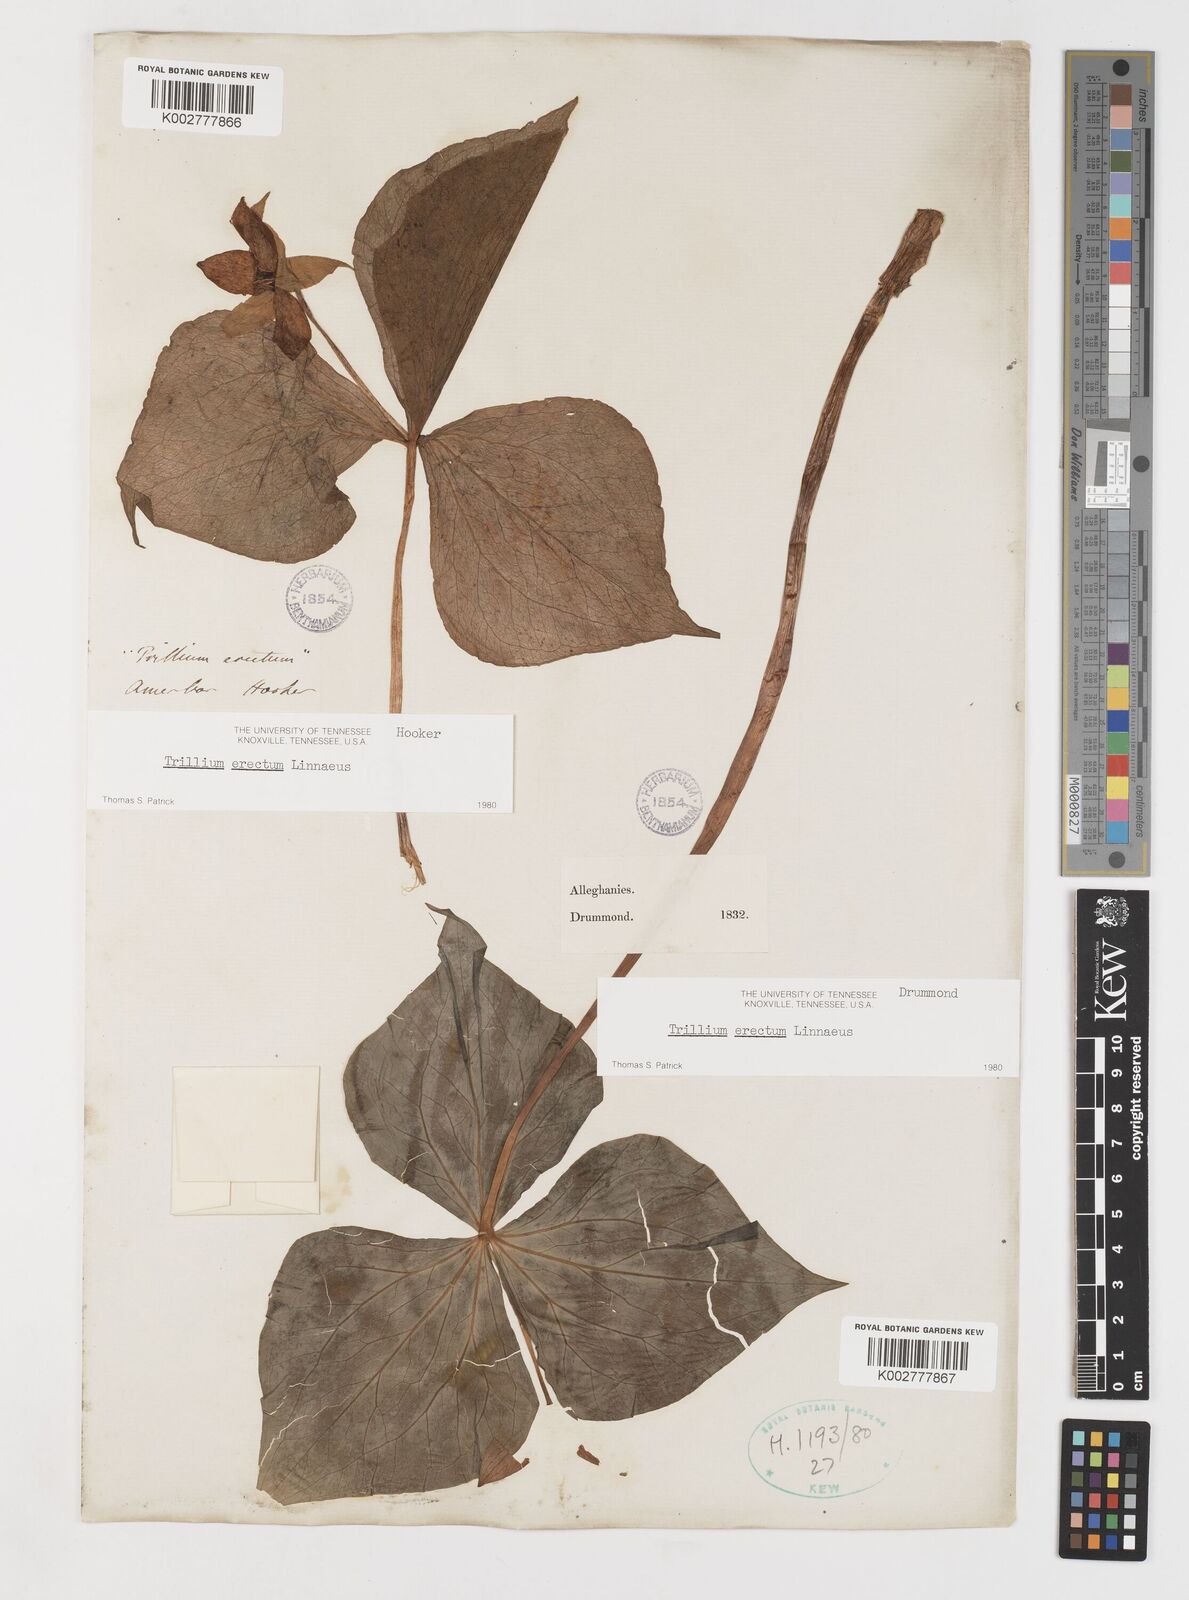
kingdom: Plantae
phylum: Tracheophyta
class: Liliopsida
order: Liliales
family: Melanthiaceae
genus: Trillium
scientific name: Trillium erectum
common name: Purple trillium
